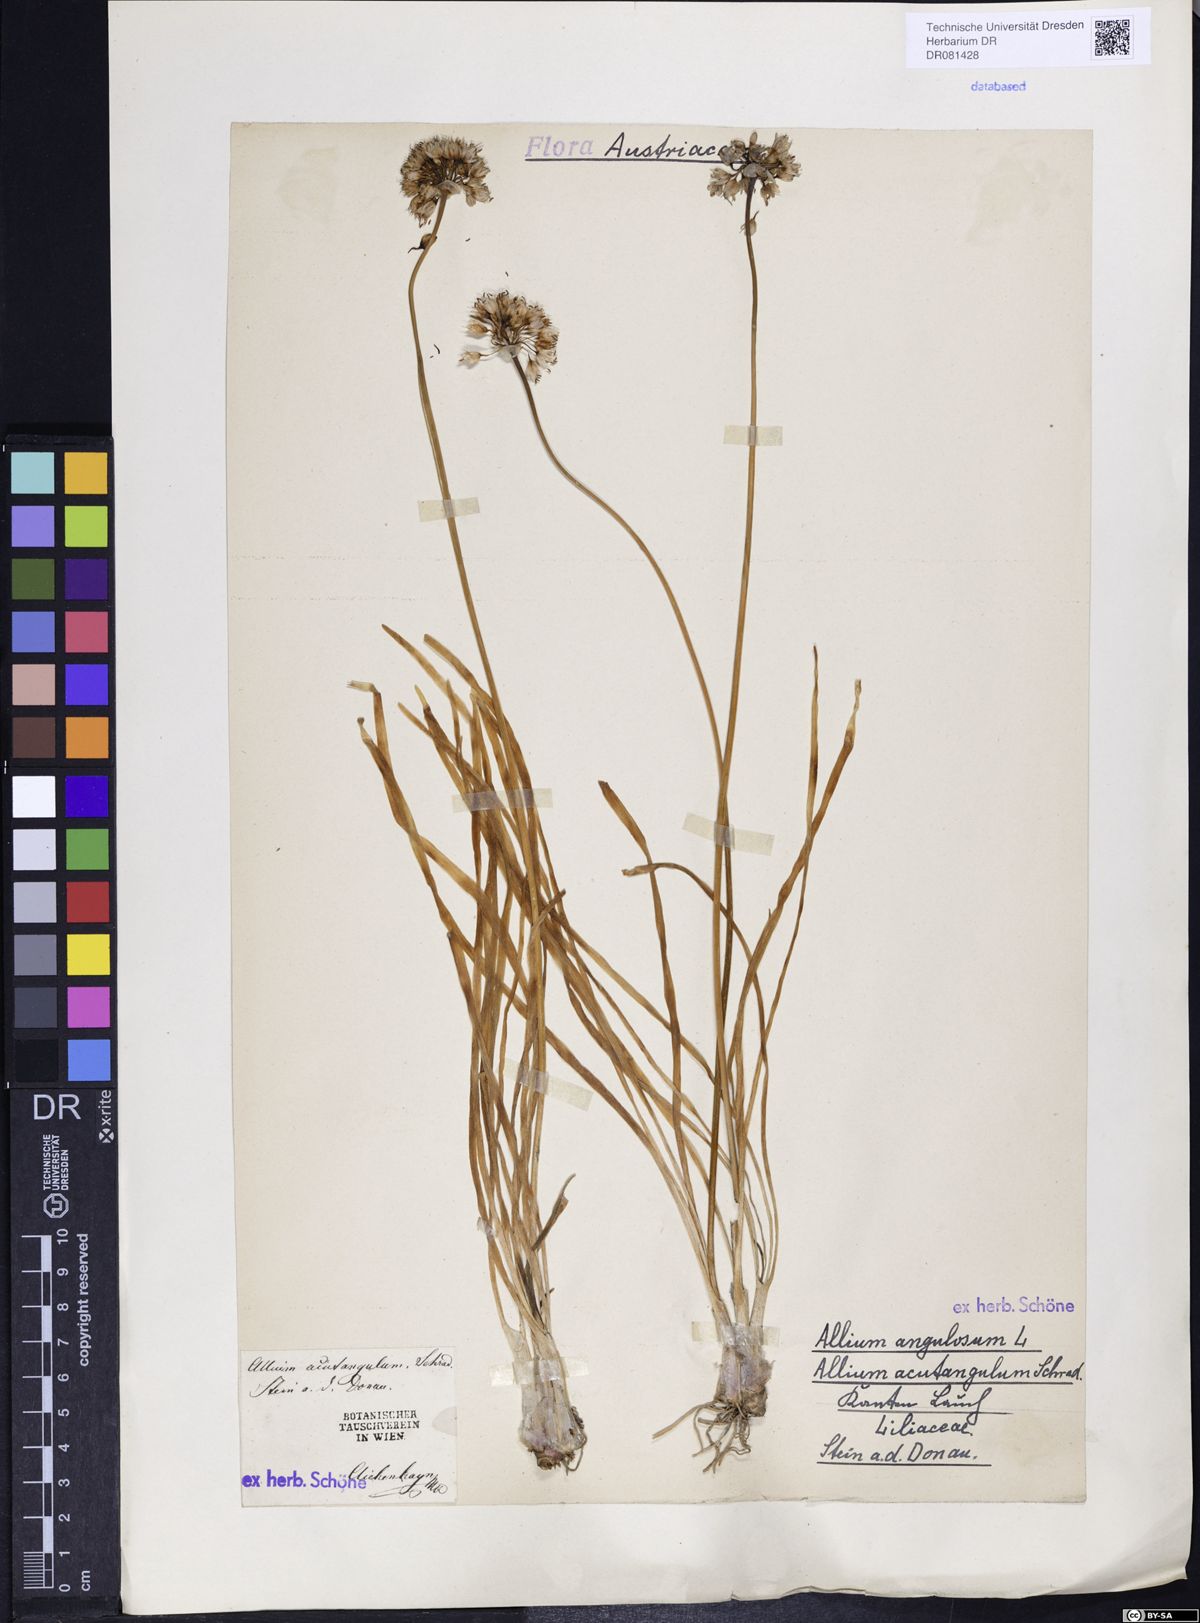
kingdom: Plantae
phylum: Tracheophyta
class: Liliopsida
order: Asparagales
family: Amaryllidaceae
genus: Allium
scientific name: Allium angulosum
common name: Mouse garlic
